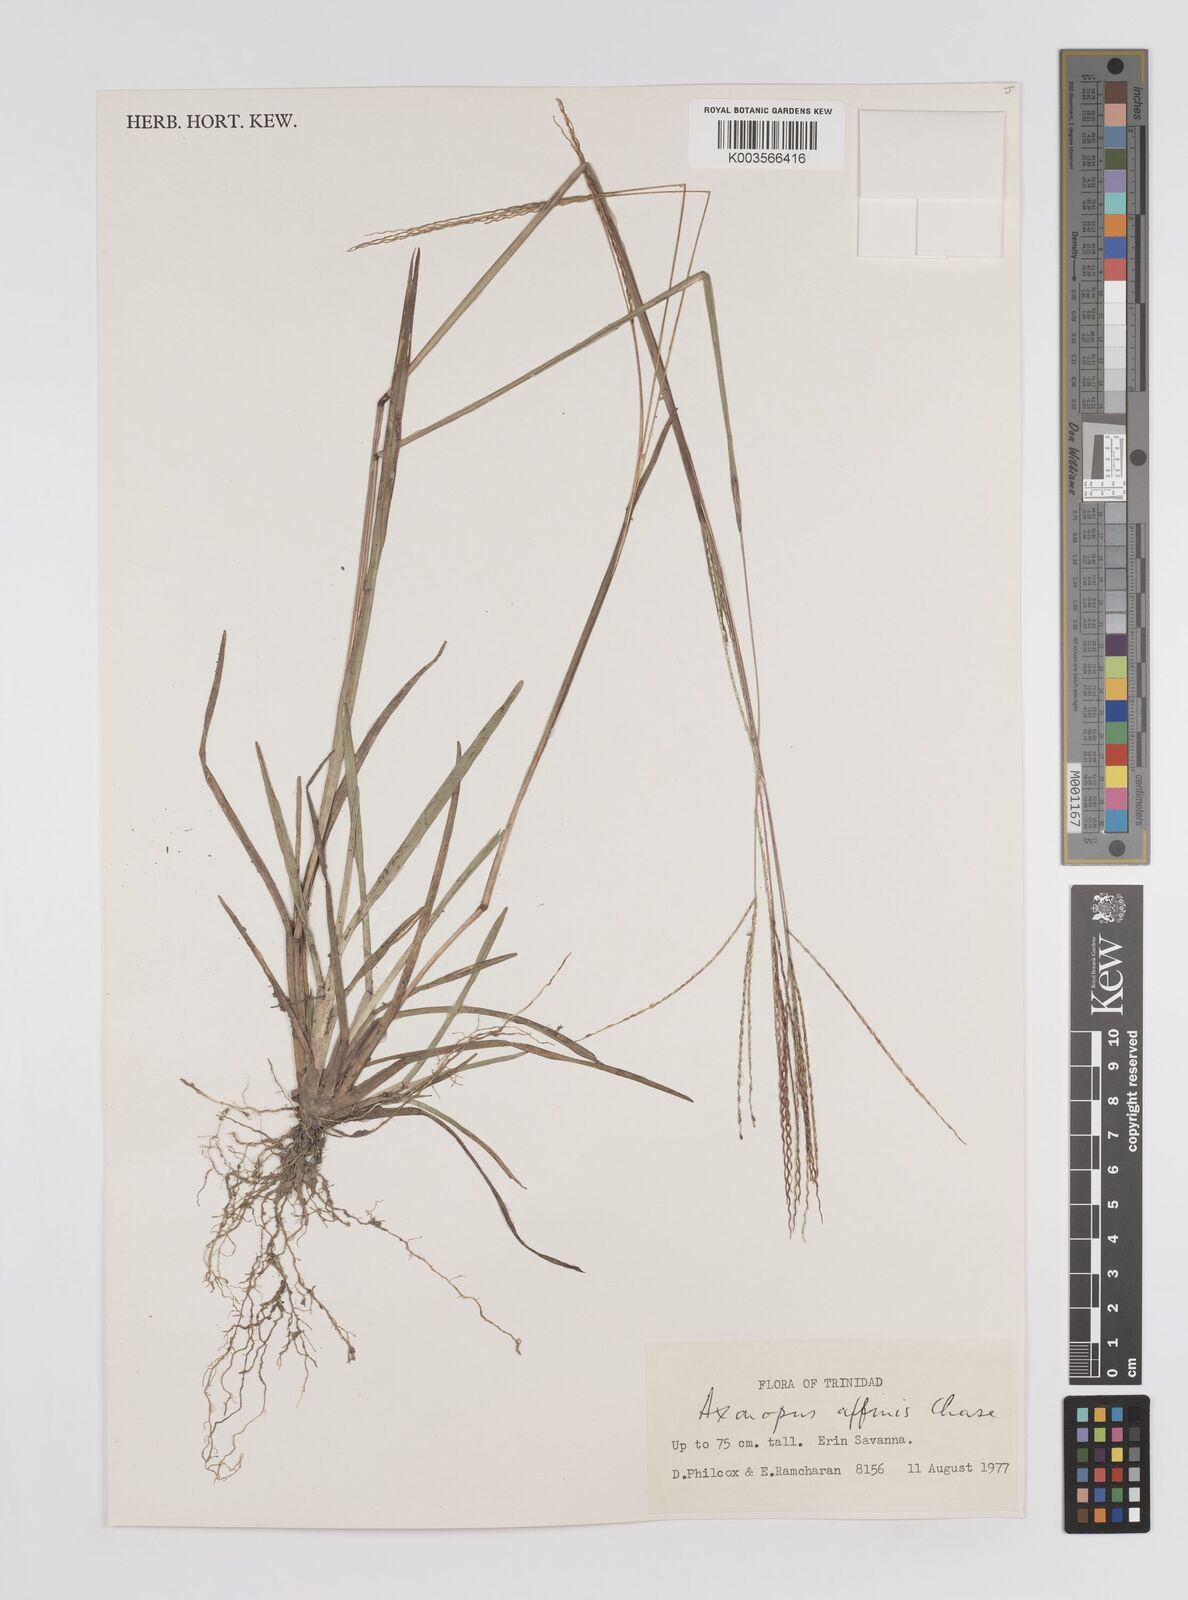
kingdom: Plantae
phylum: Tracheophyta
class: Liliopsida
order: Poales
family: Poaceae
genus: Axonopus
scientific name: Axonopus fissifolius
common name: Common carpetgrass
